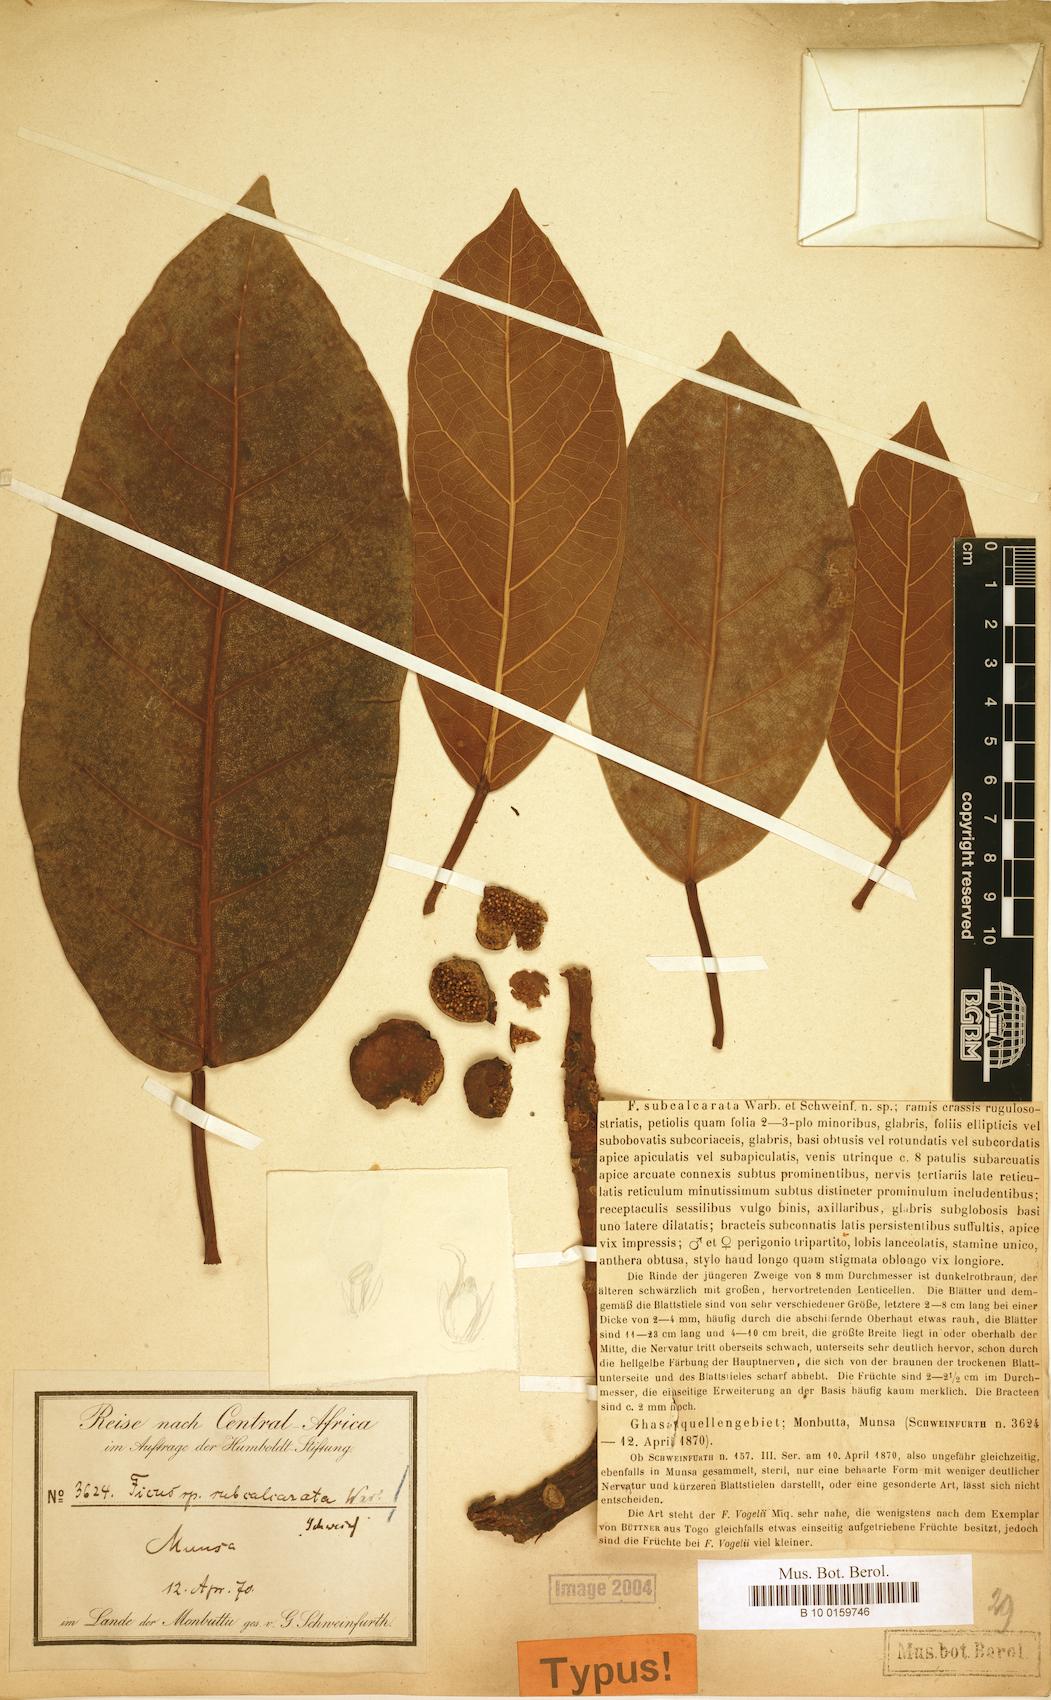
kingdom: Plantae
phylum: Tracheophyta
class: Magnoliopsida
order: Rosales
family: Moraceae
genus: Ficus
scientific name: Ficus lutea
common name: Giant-leaved fig
